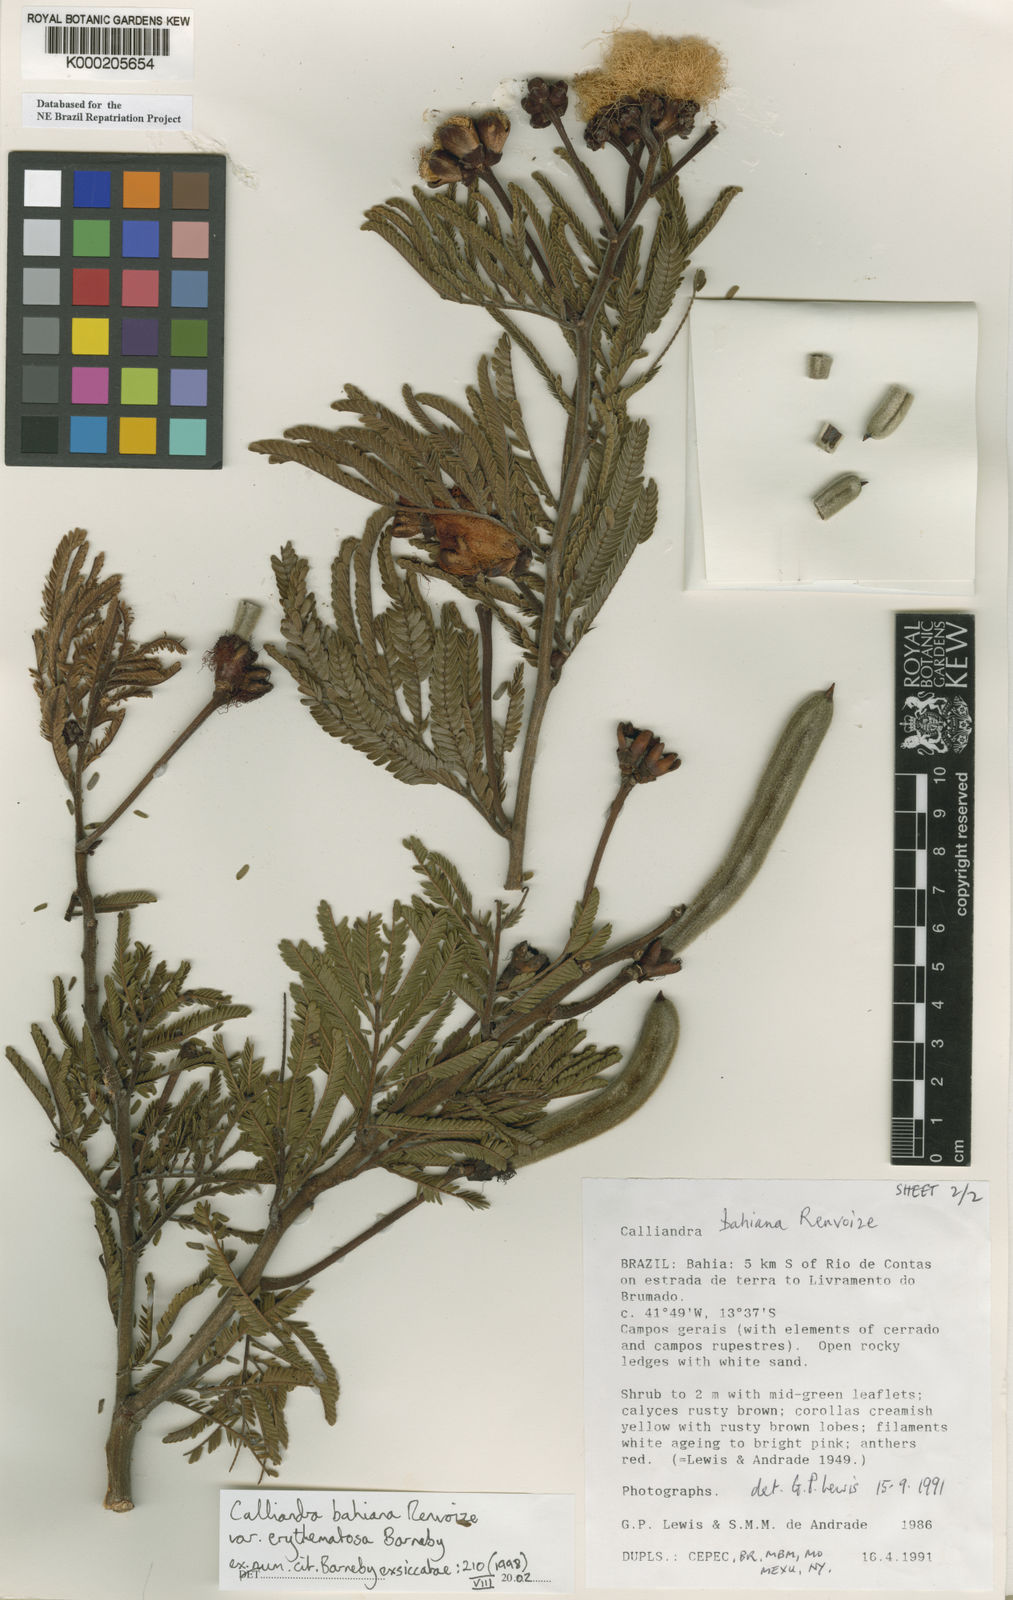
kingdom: Plantae
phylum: Tracheophyta
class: Magnoliopsida
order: Fabales
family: Fabaceae
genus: Calliandra
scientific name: Calliandra bahiana
